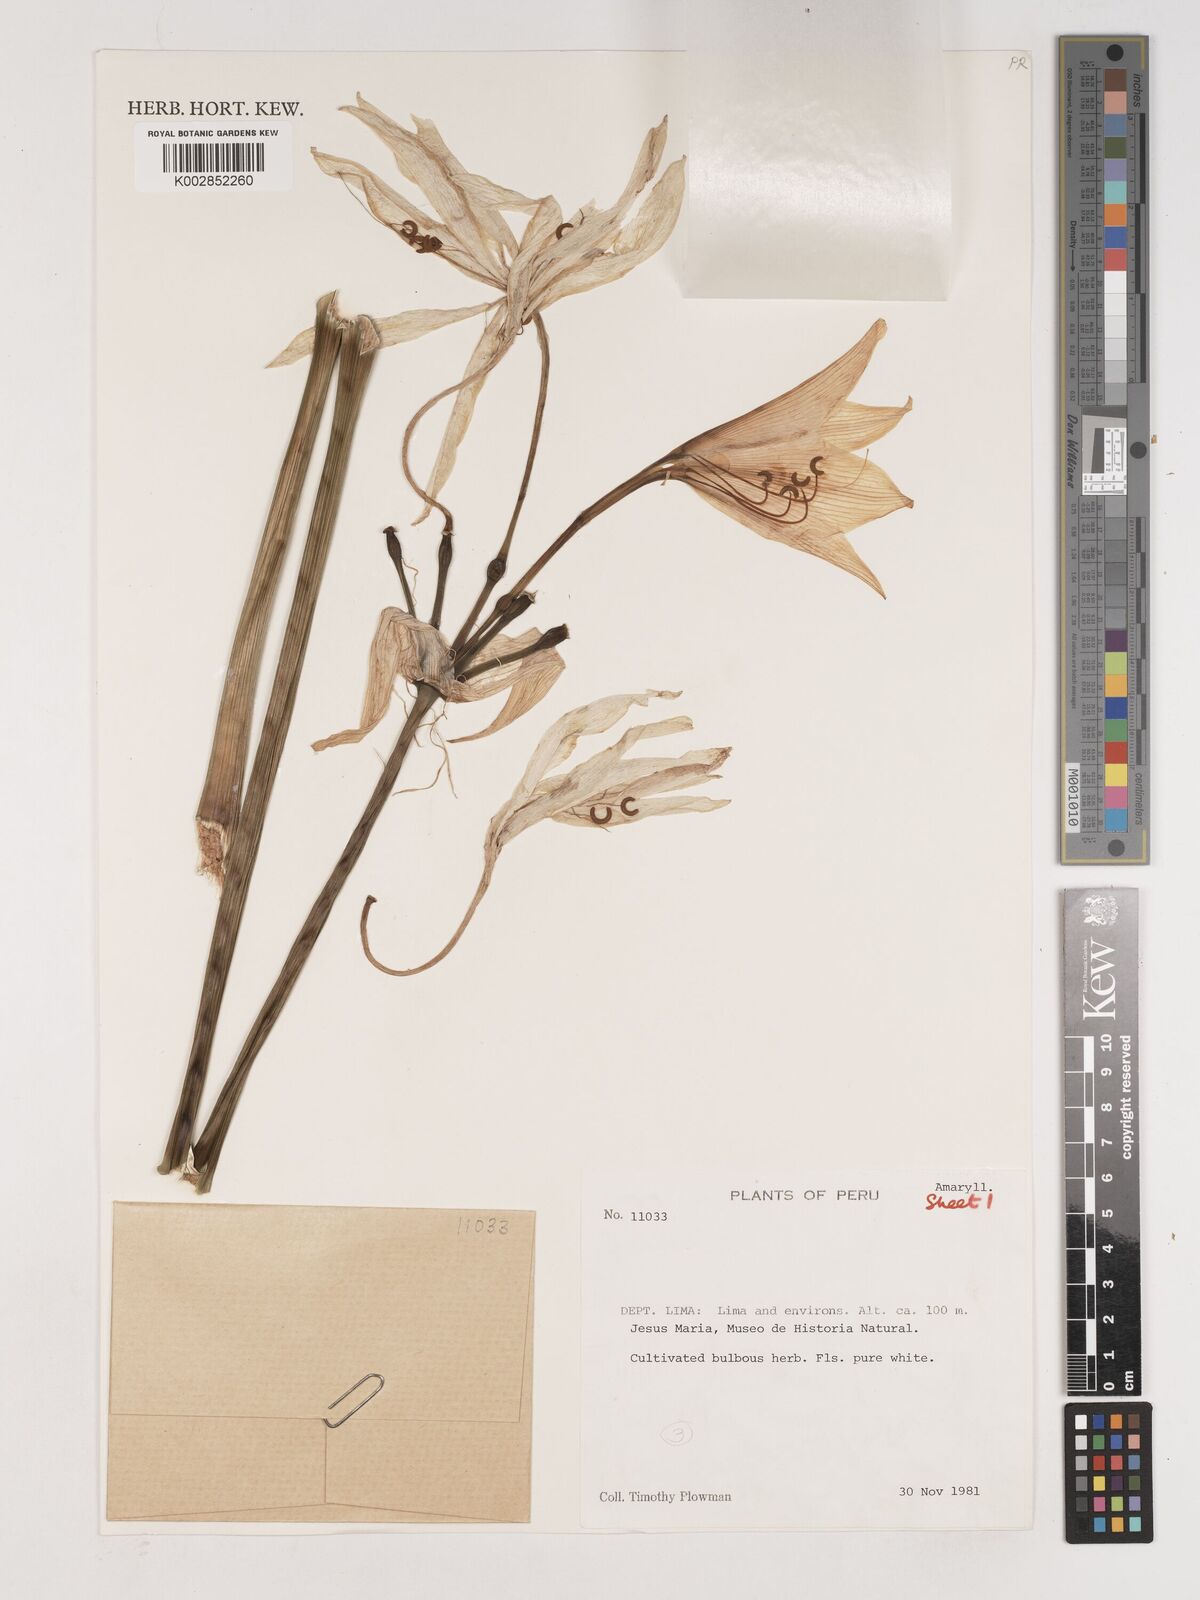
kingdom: Plantae
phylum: Tracheophyta
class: Liliopsida
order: Asparagales
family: Amaryllidaceae
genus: Crinum
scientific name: Crinum moorei
